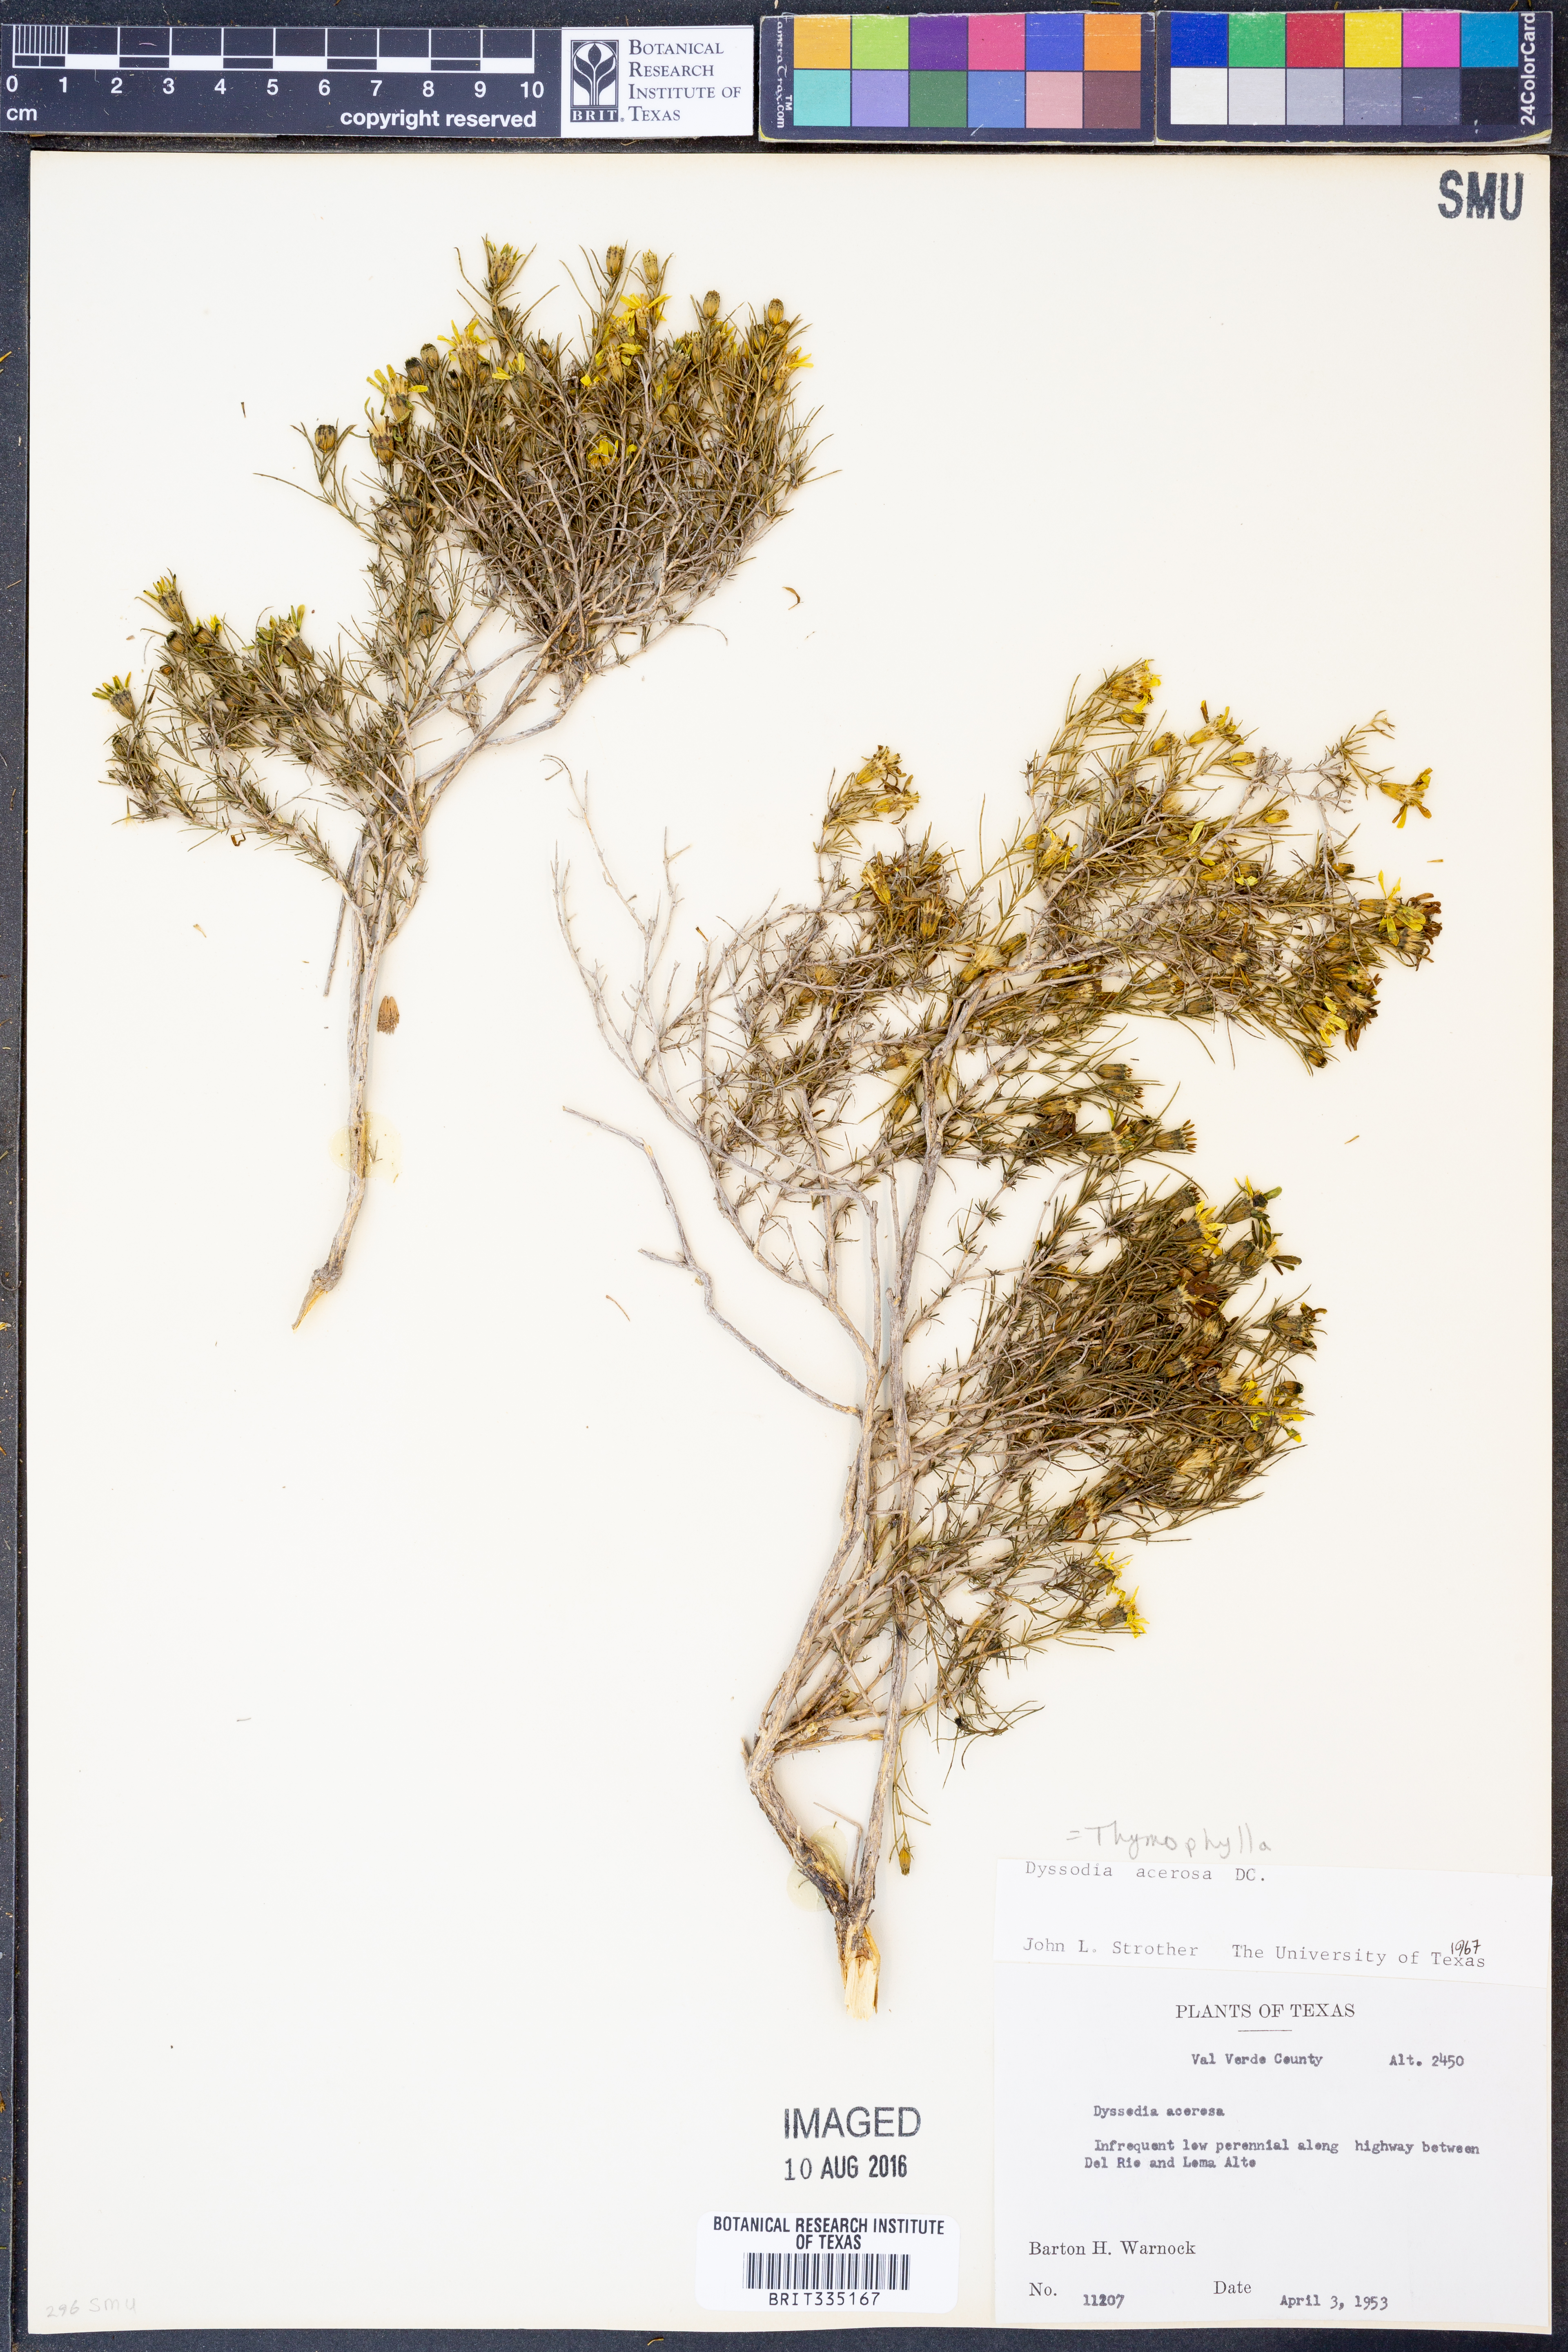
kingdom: Plantae
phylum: Tracheophyta
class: Magnoliopsida
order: Asterales
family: Asteraceae
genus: Thymophylla
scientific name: Thymophylla acerosa
